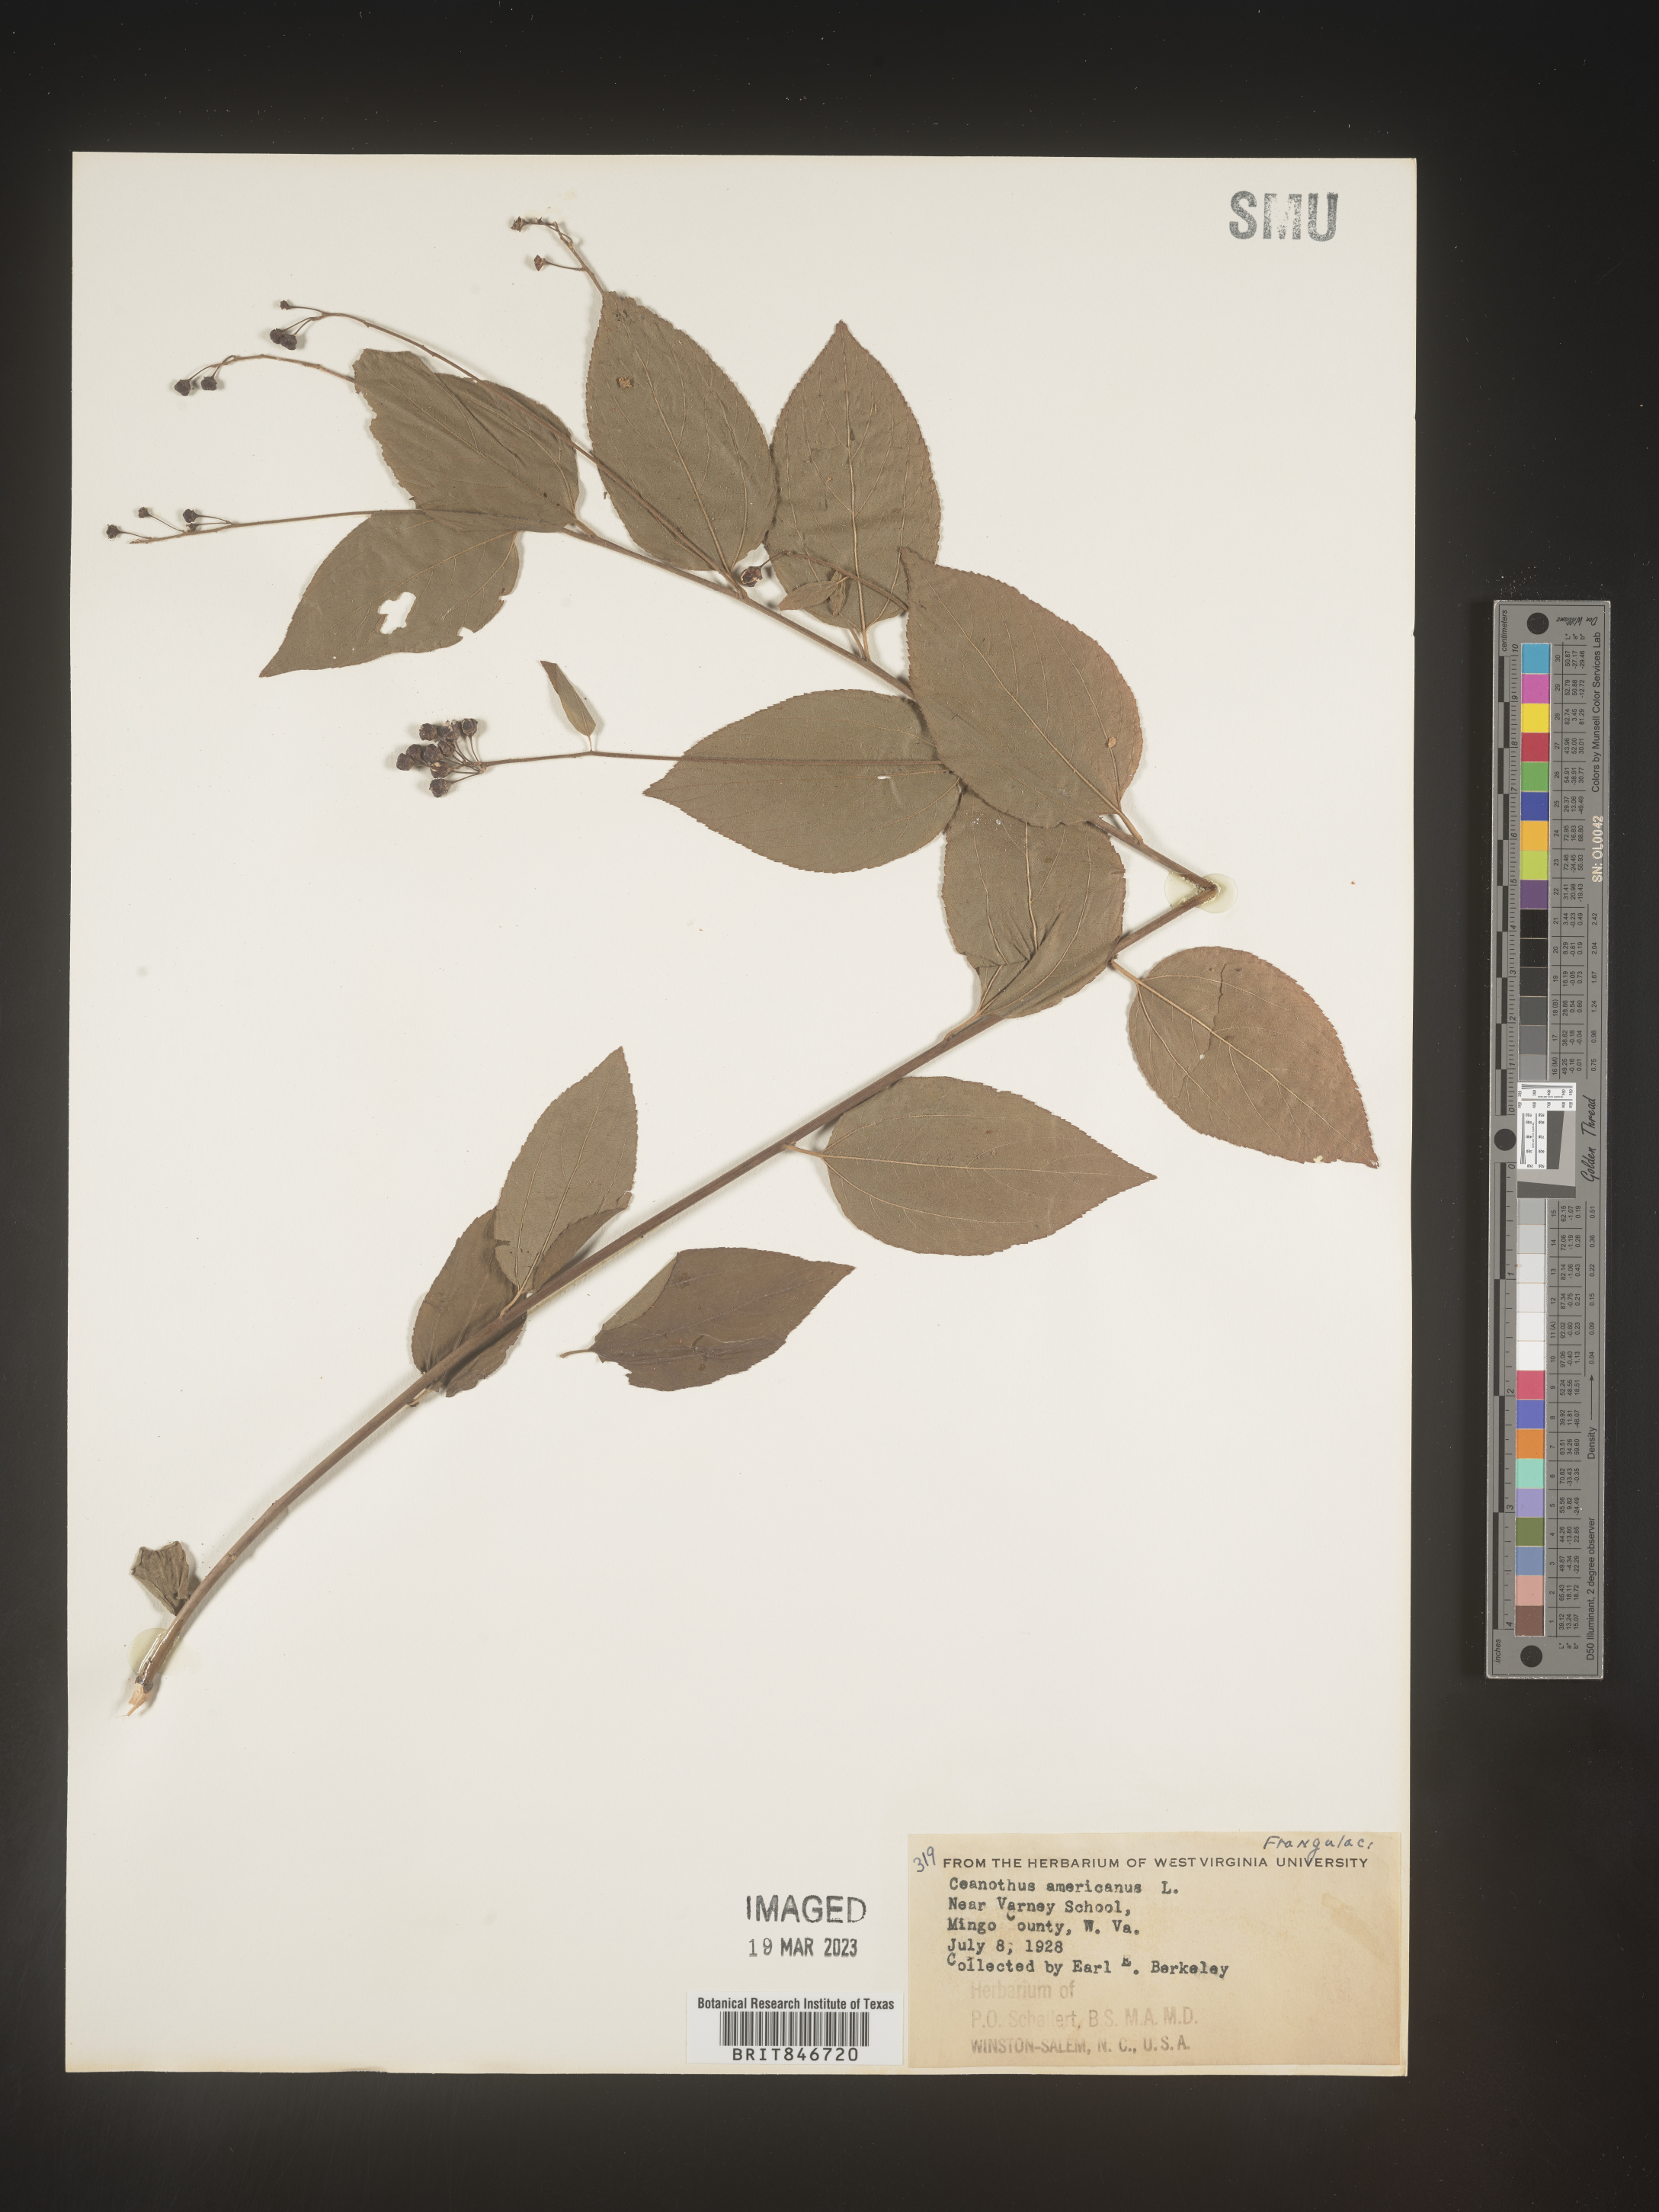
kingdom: Plantae
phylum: Tracheophyta
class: Magnoliopsida
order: Rosales
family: Rhamnaceae
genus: Ceanothus
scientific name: Ceanothus americanus
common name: Redroot
